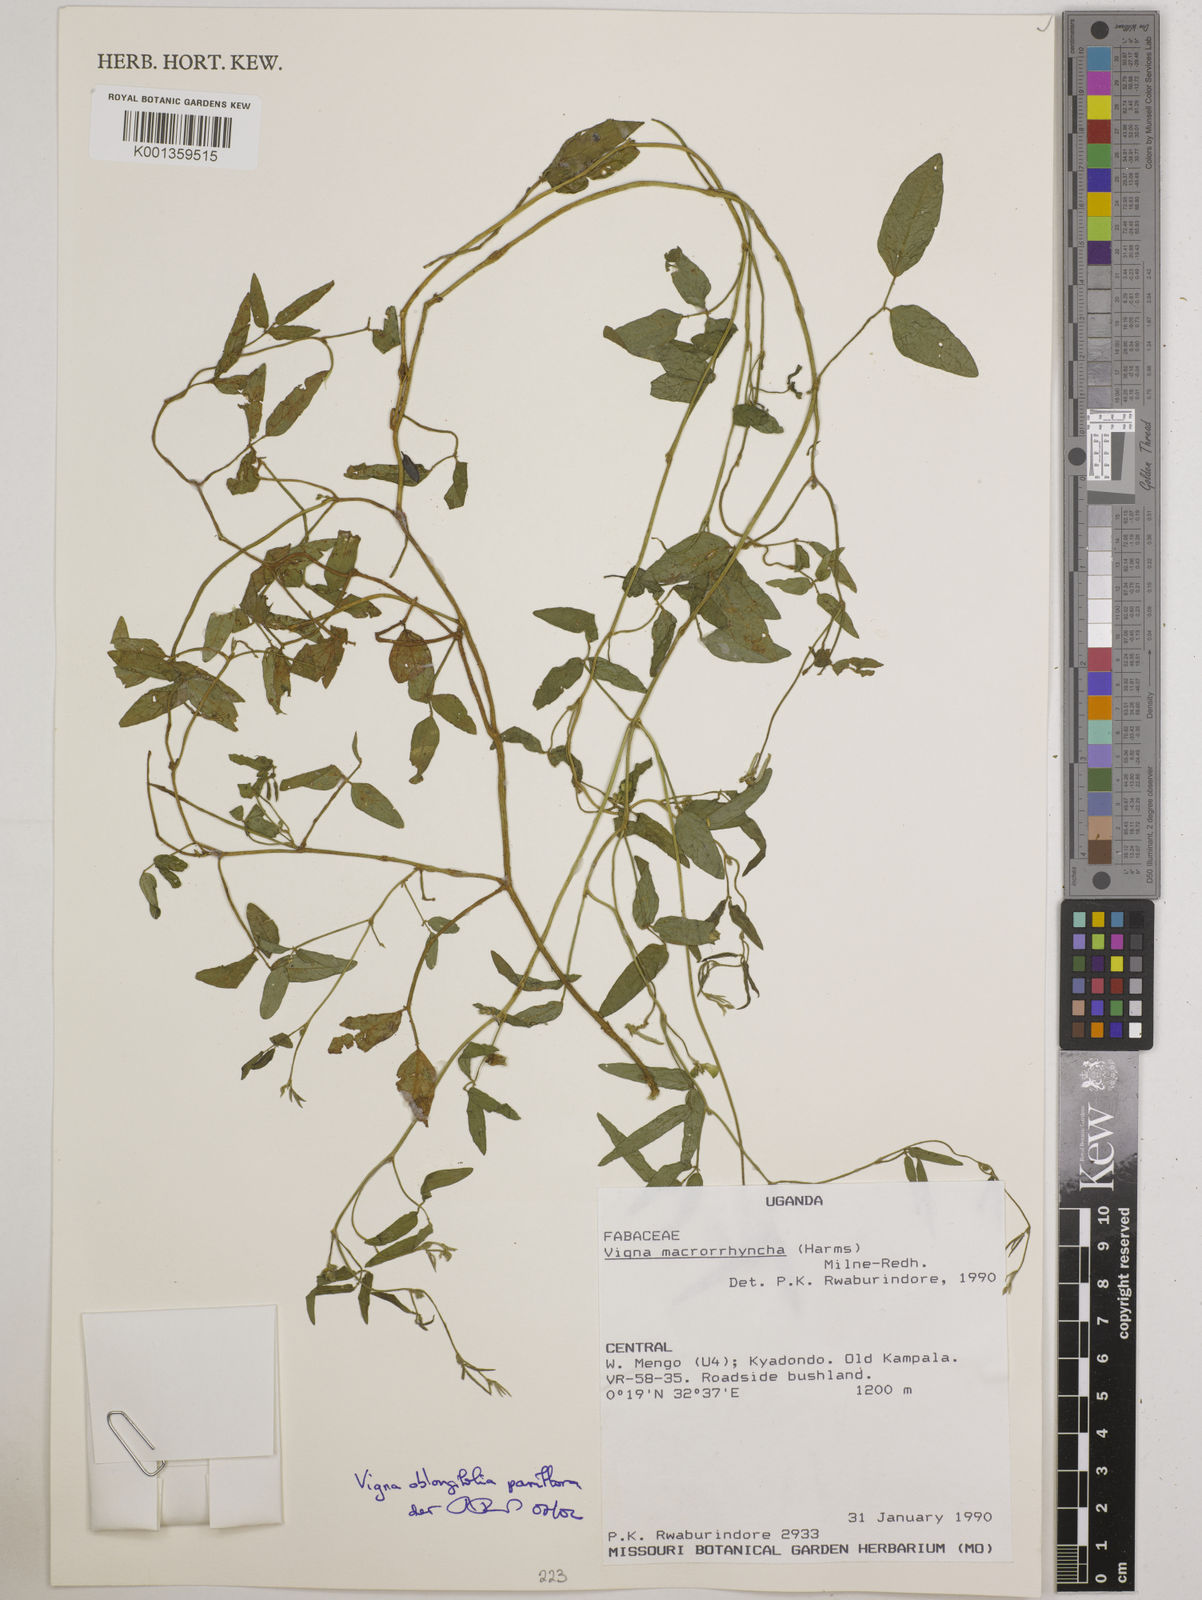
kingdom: Plantae
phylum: Tracheophyta
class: Magnoliopsida
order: Fabales
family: Fabaceae
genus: Vigna
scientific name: Vigna
